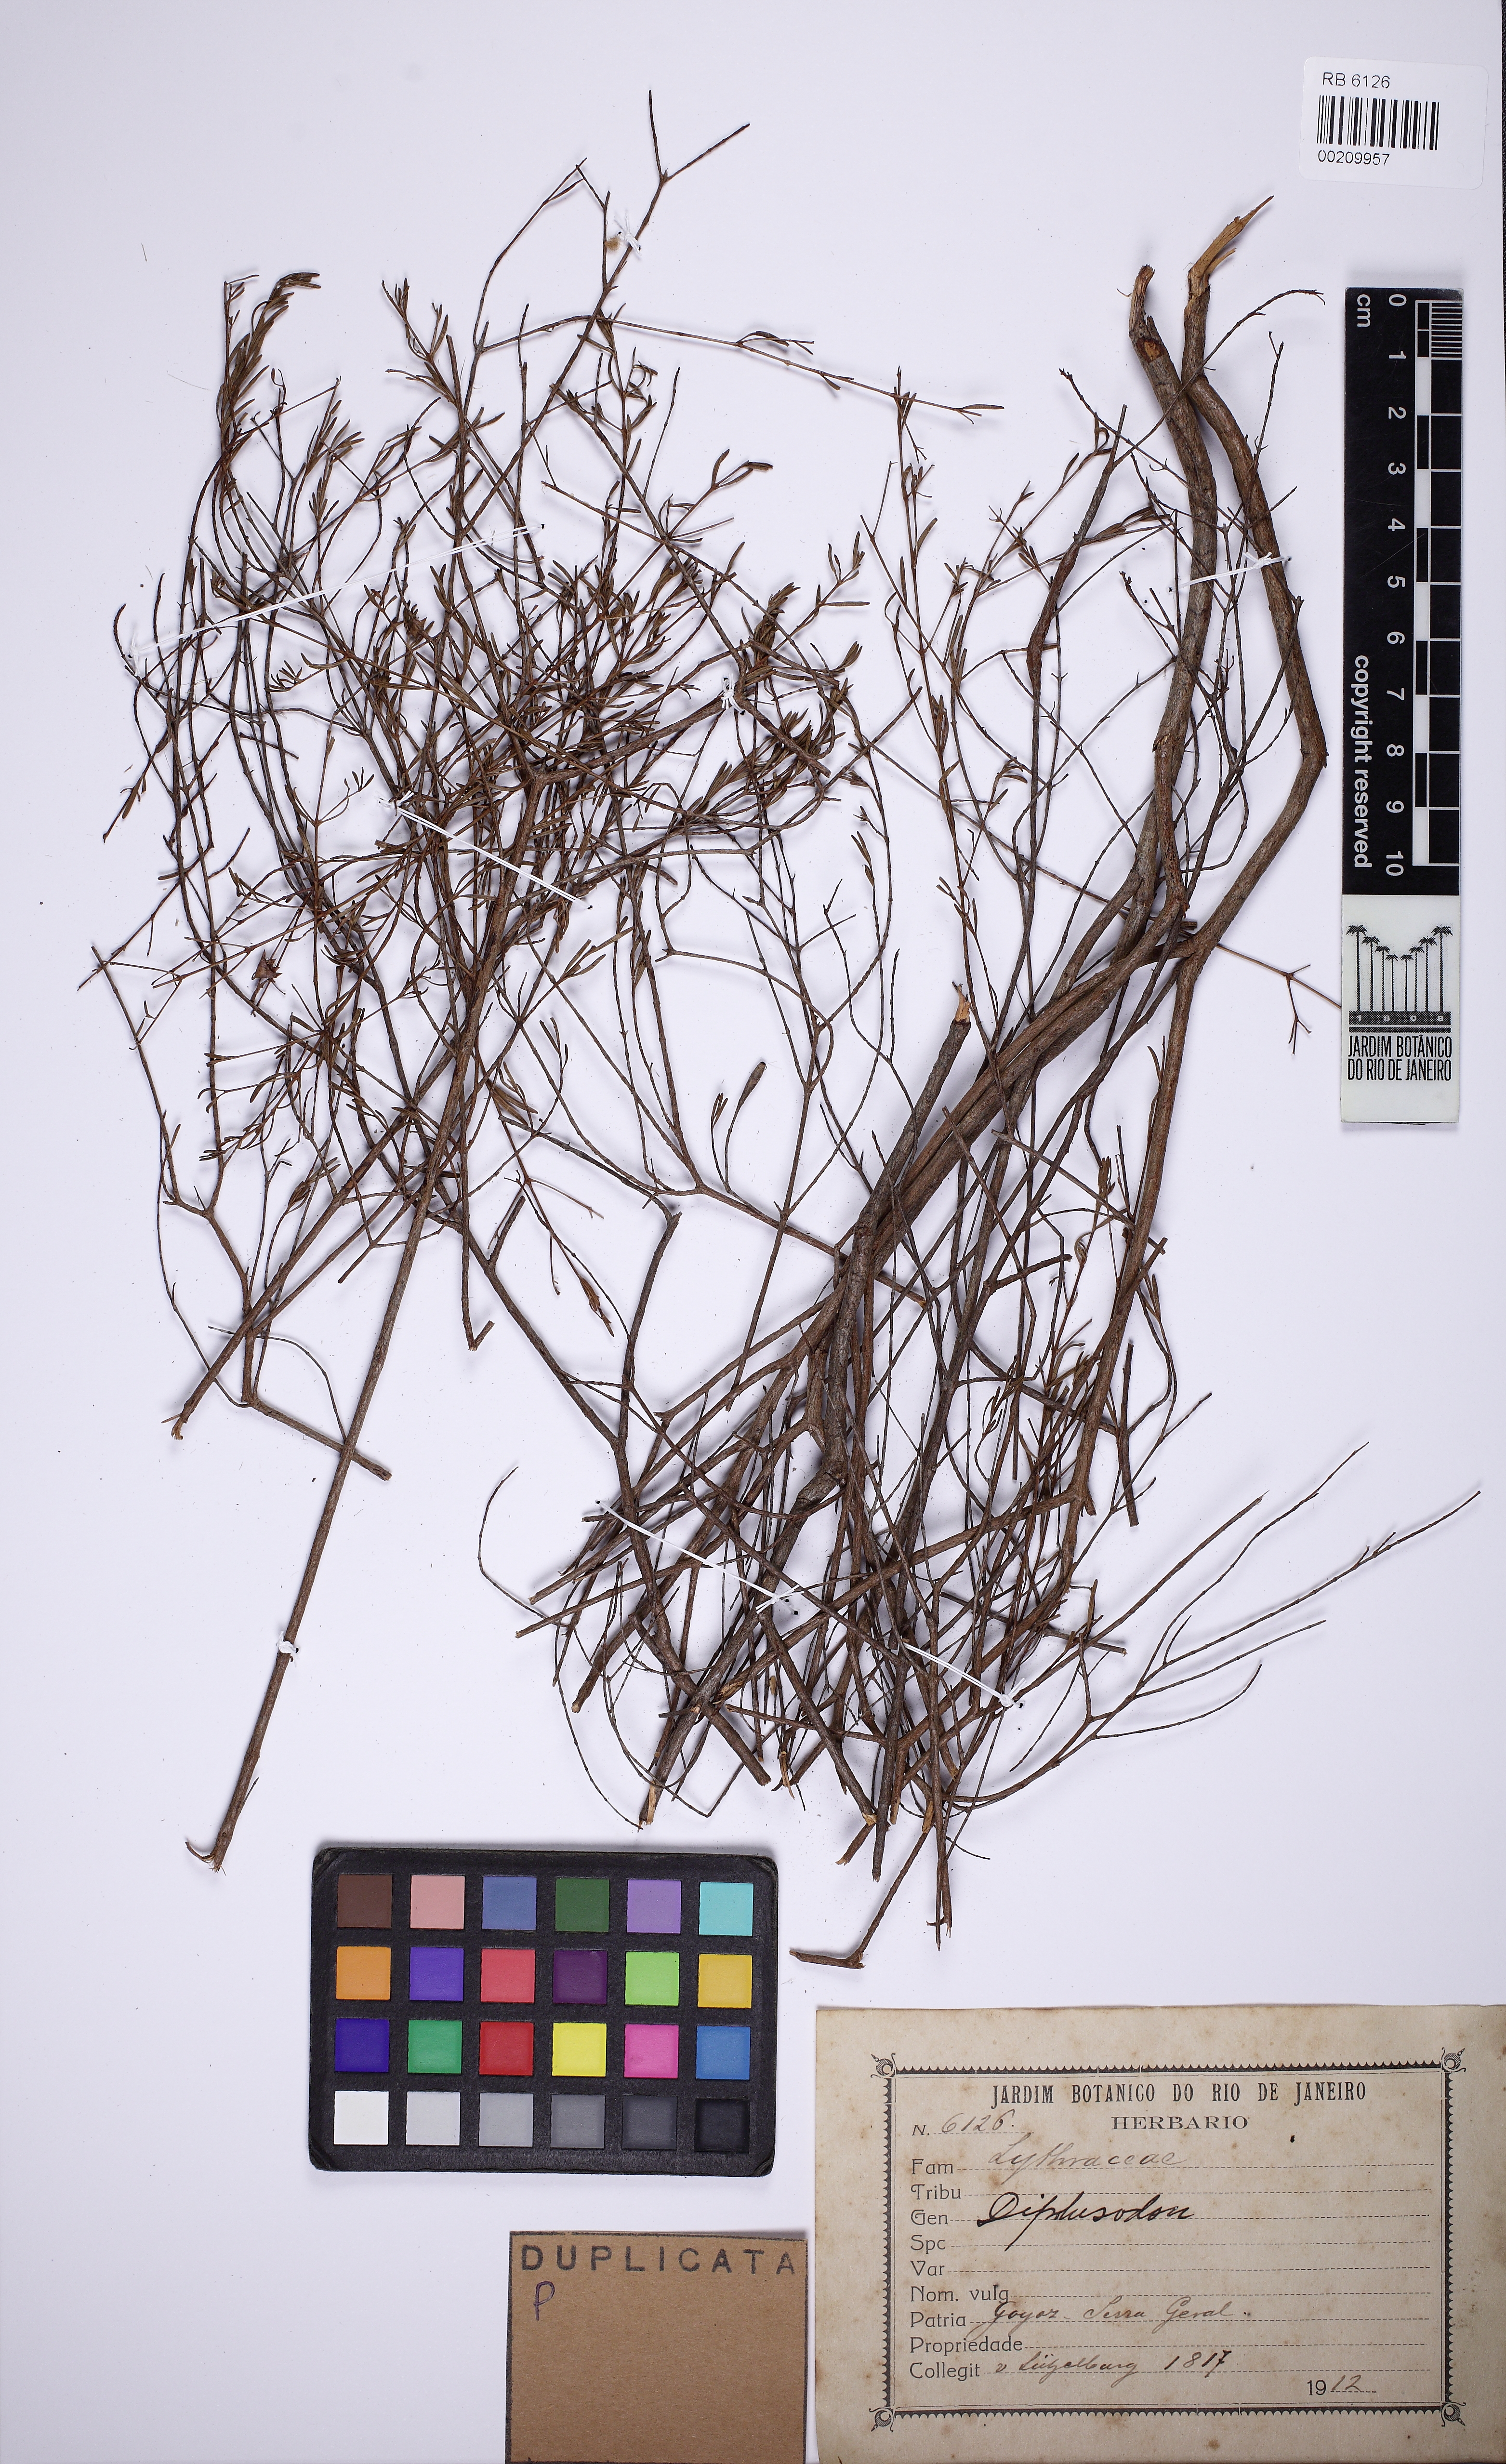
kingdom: Plantae
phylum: Tracheophyta
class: Magnoliopsida
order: Myrtales
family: Lythraceae
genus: Diplusodon
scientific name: Diplusodon
